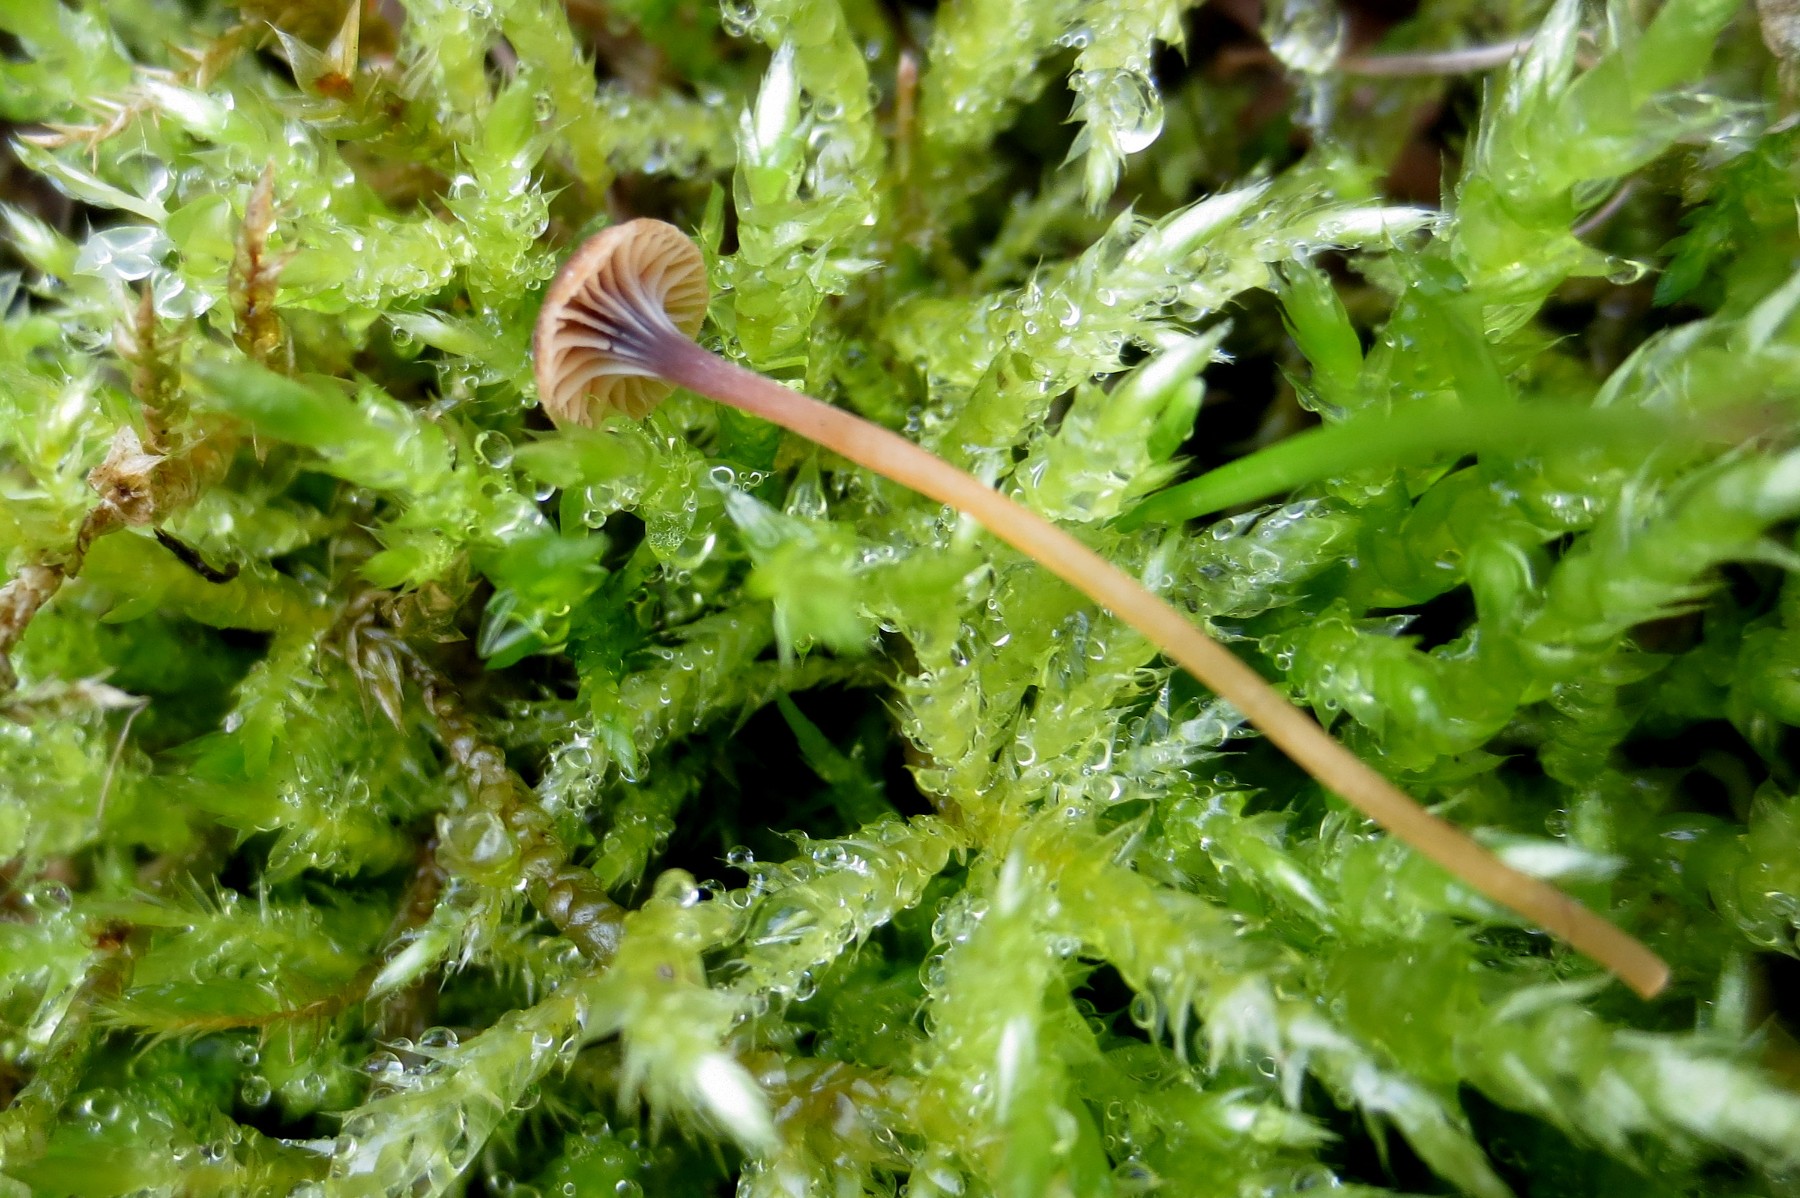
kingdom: Fungi
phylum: Basidiomycota
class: Agaricomycetes
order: Hymenochaetales
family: Rickenellaceae
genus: Rickenella
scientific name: Rickenella swartzii
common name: finstokket mosnavlehat
